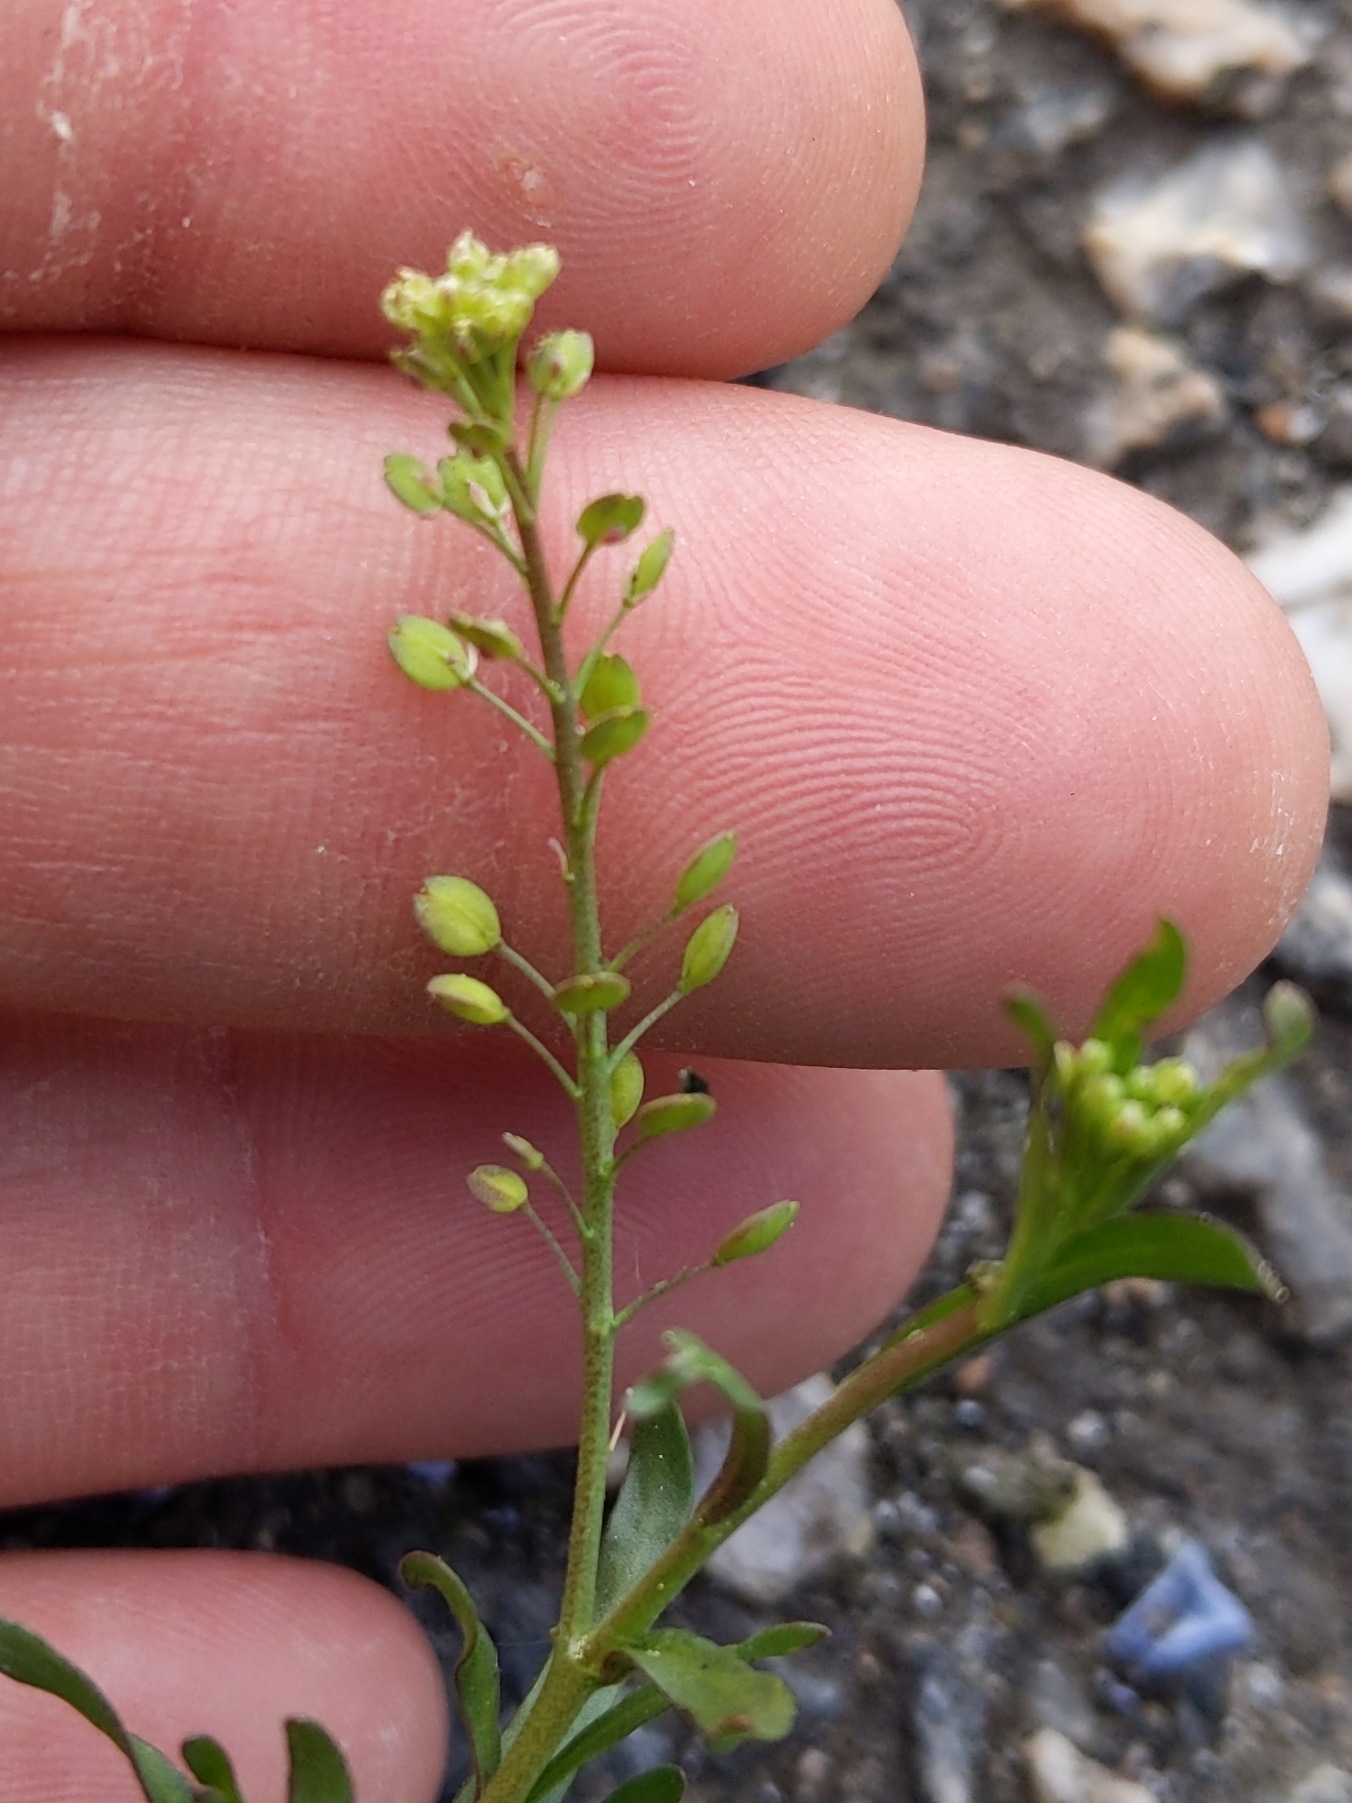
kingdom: Plantae
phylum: Tracheophyta
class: Magnoliopsida
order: Brassicales
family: Brassicaceae
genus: Lepidium
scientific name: Lepidium ruderale
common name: Stinkende karse
